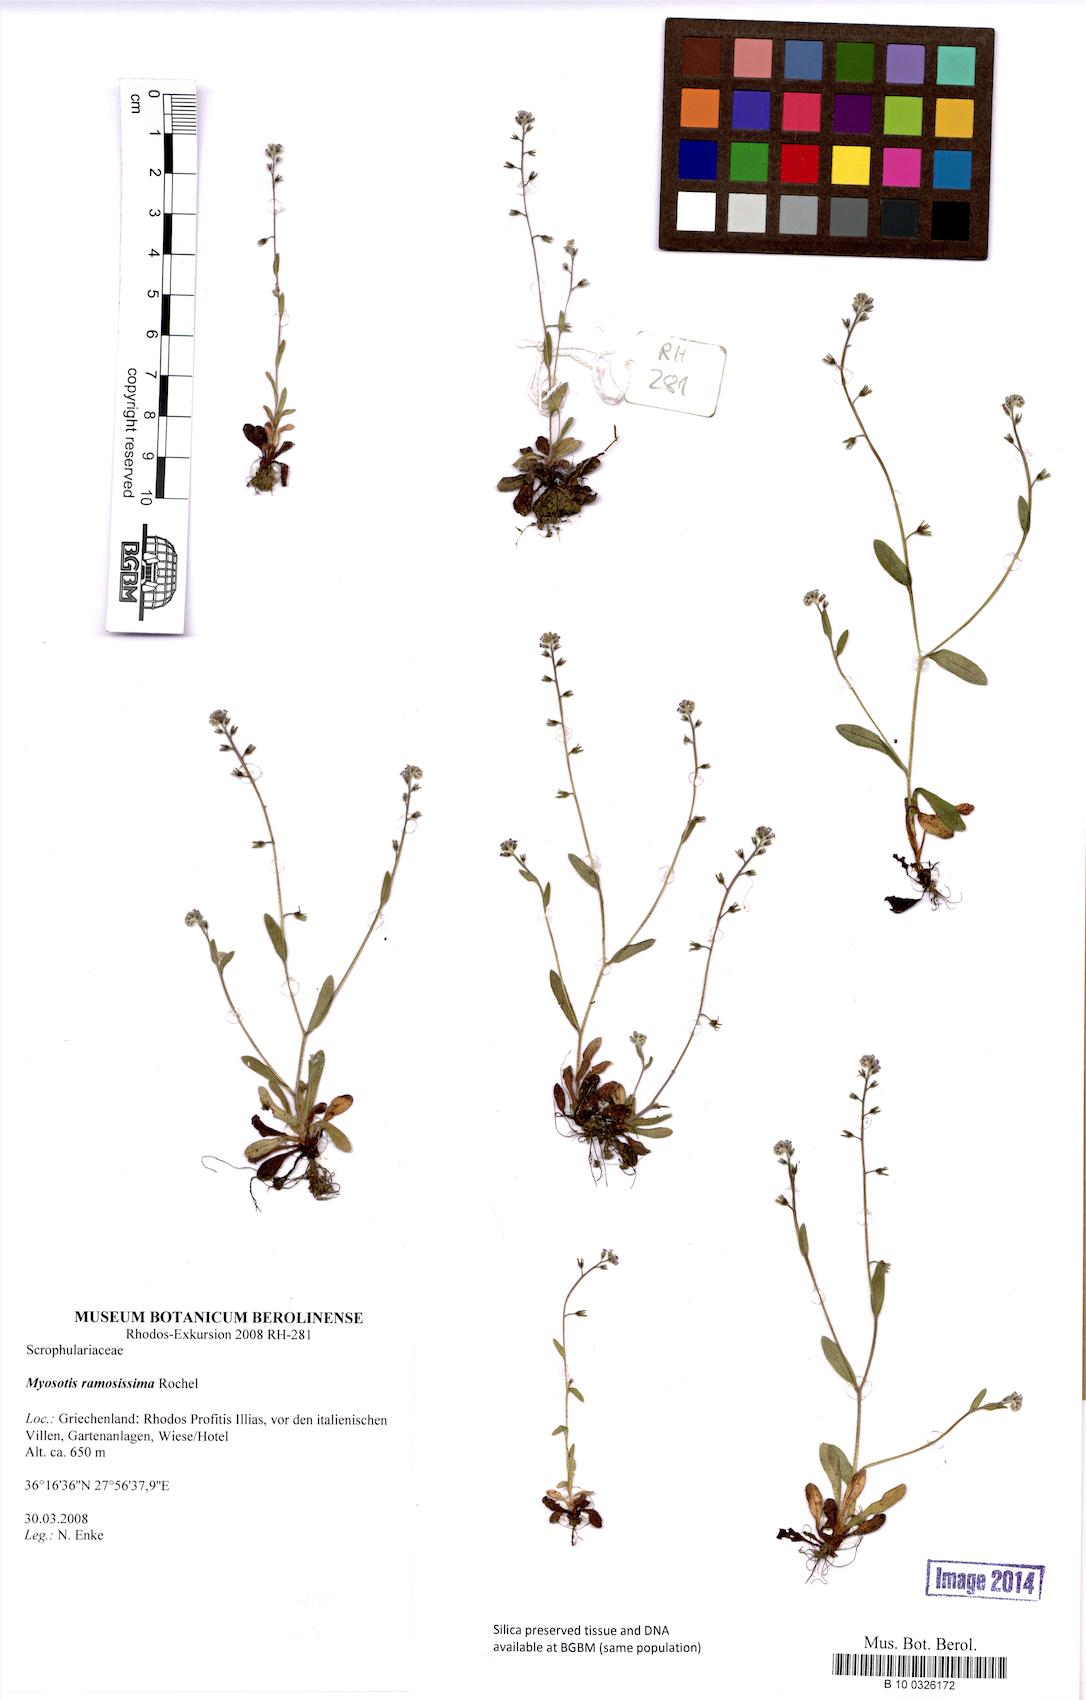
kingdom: Plantae
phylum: Tracheophyta
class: Magnoliopsida
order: Boraginales
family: Boraginaceae
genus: Myosotis
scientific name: Myosotis ramosissima
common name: Early forget-me-not
